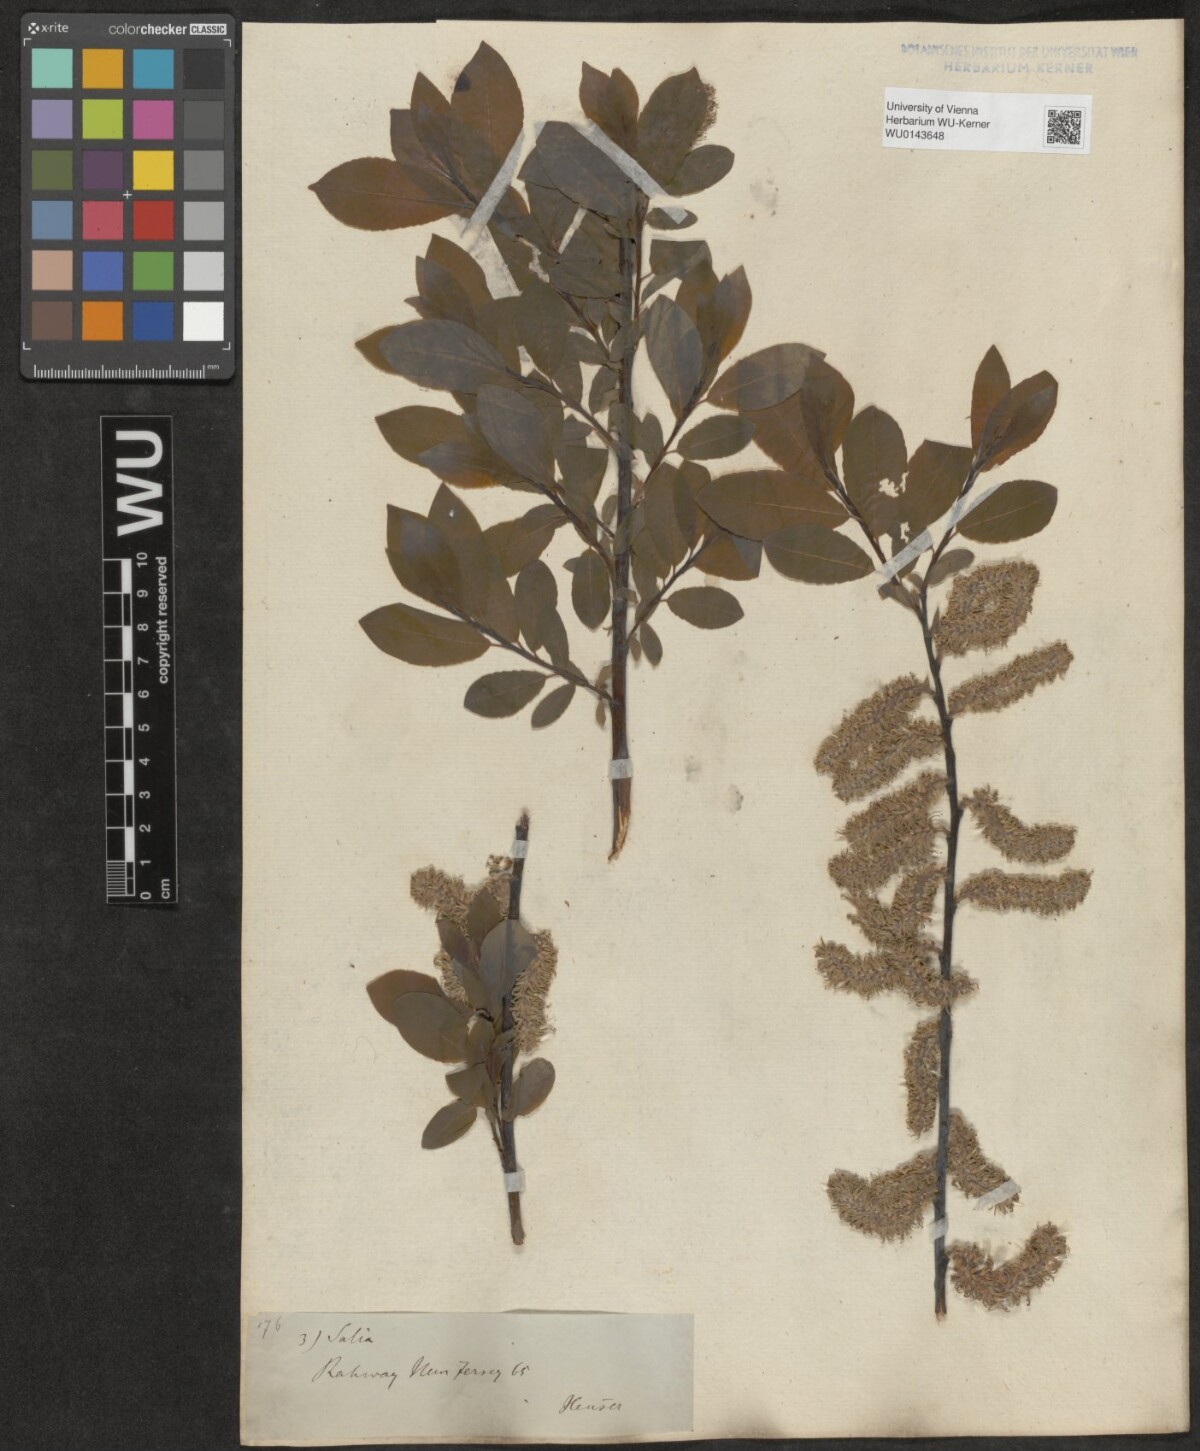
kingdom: Plantae
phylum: Tracheophyta
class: Magnoliopsida
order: Malpighiales
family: Salicaceae
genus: Salix
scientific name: Salix
